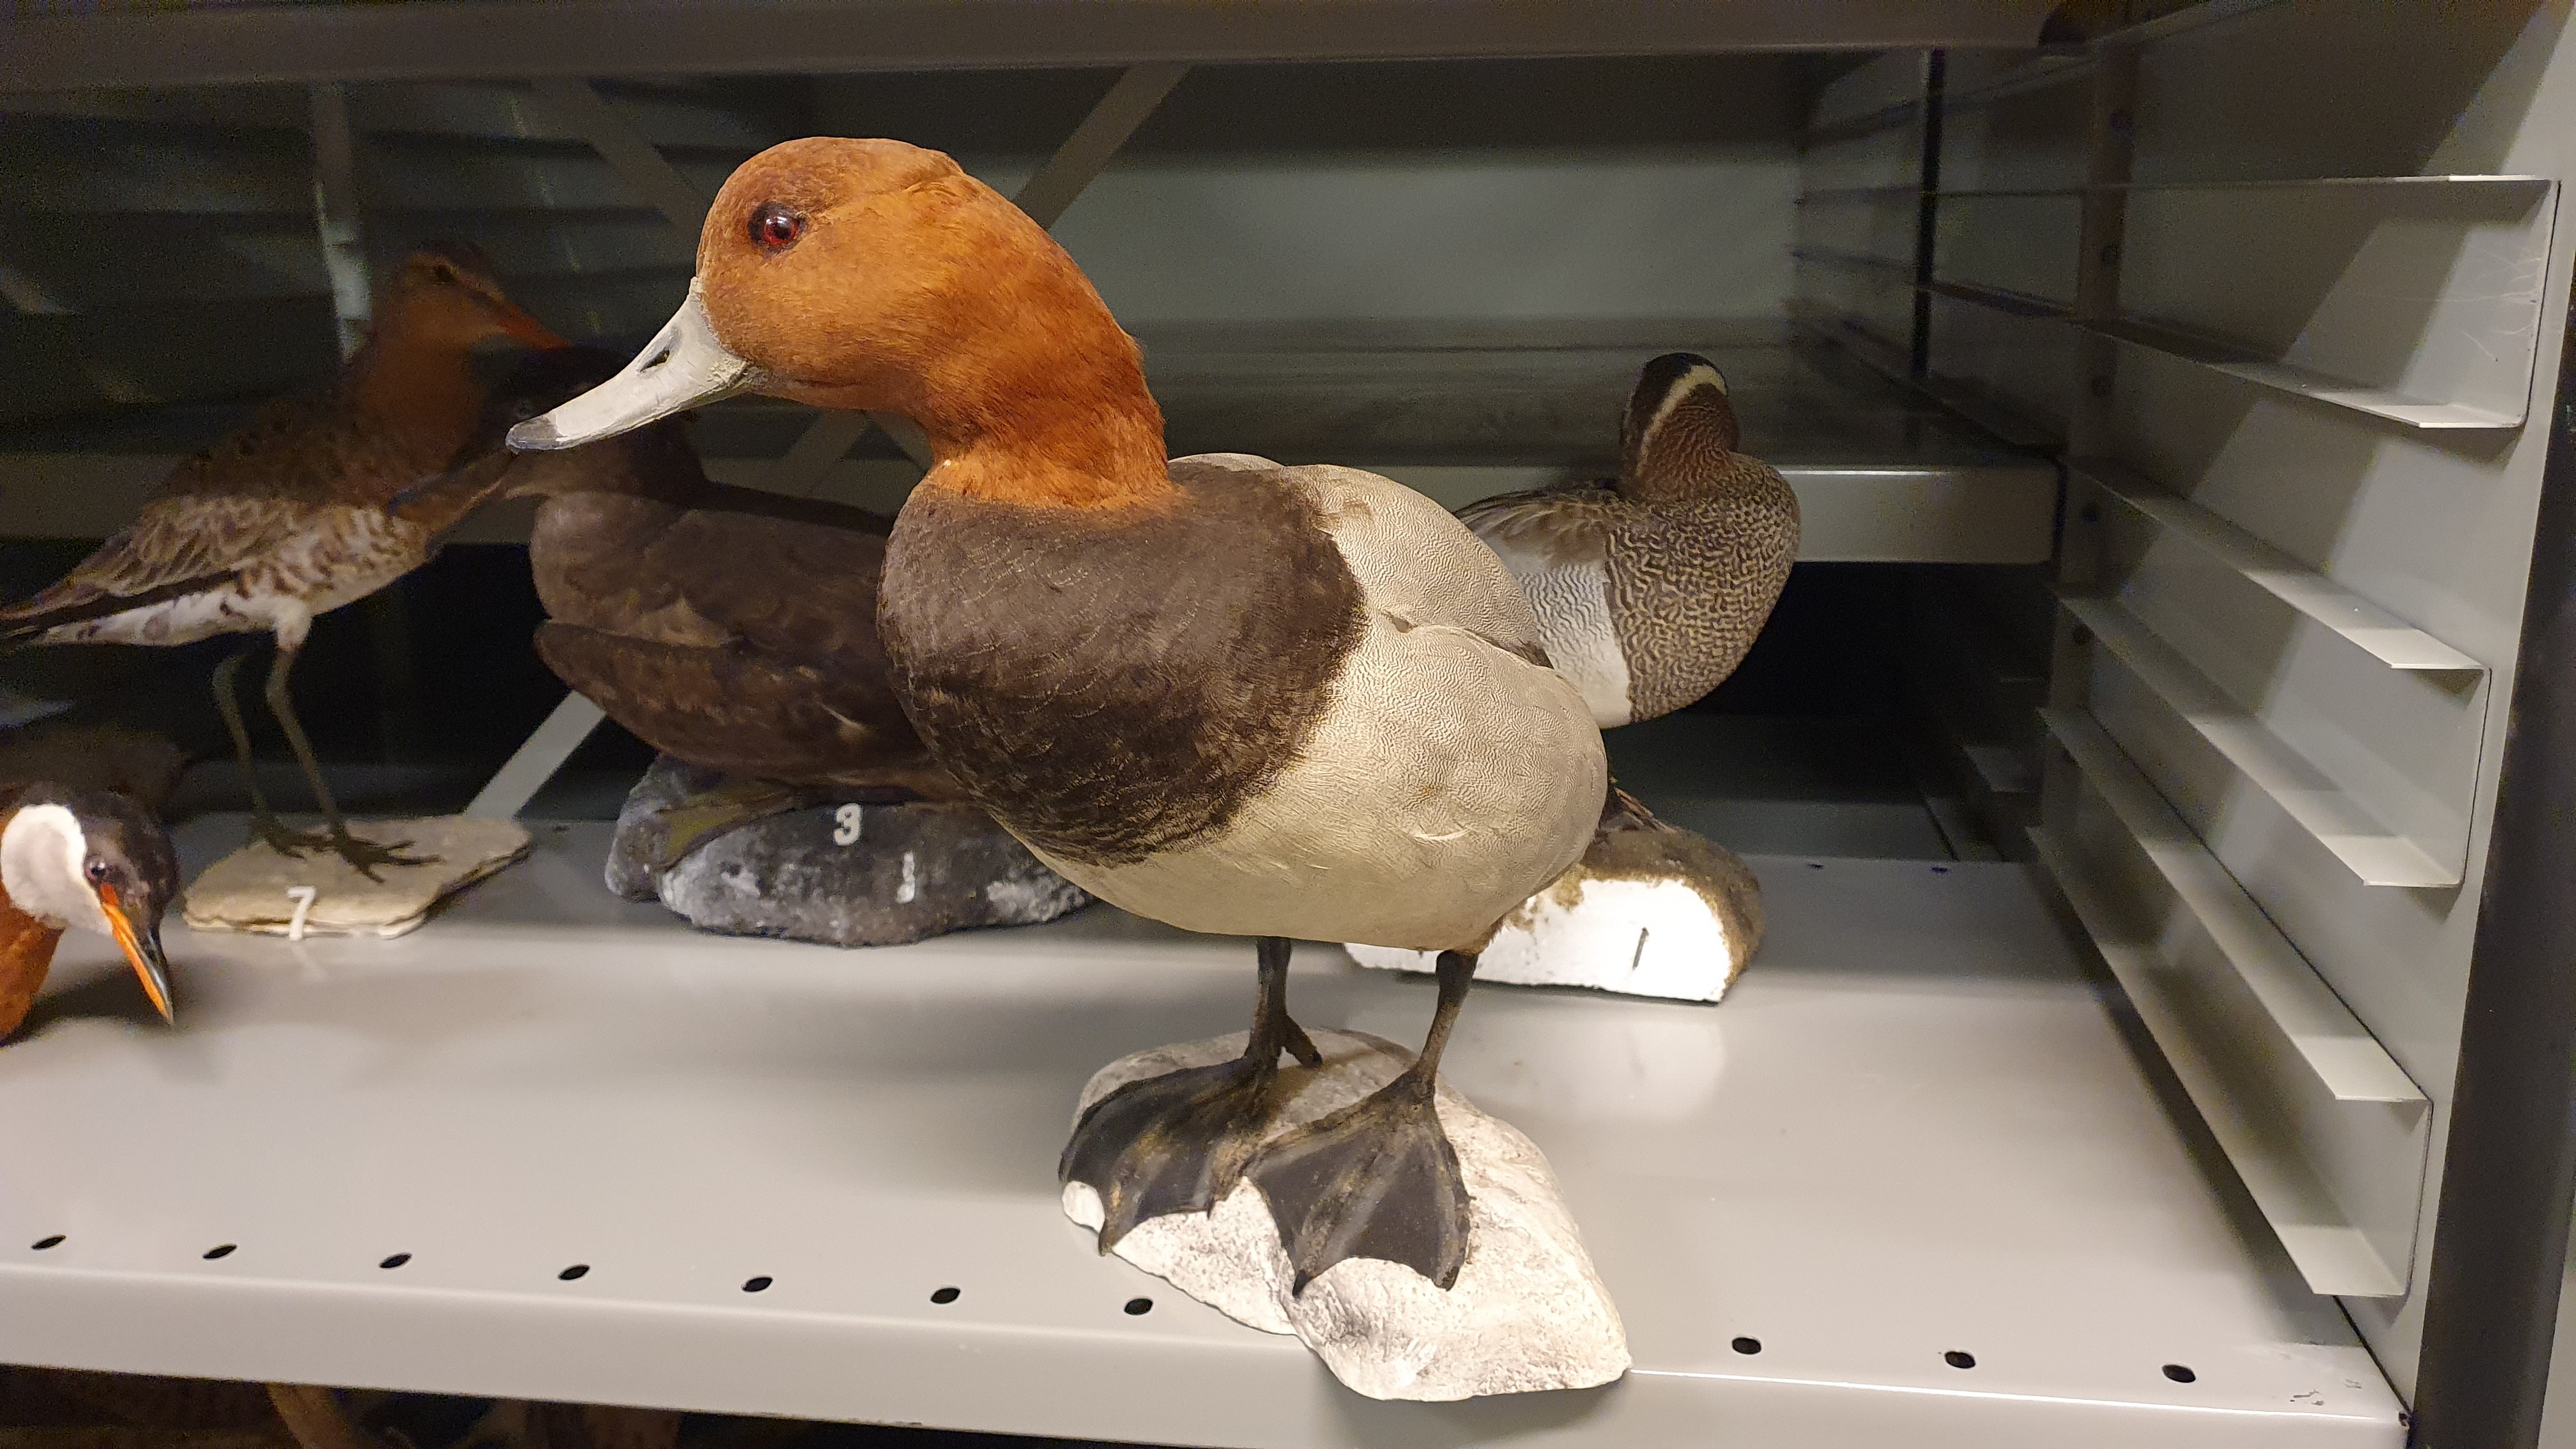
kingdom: Animalia
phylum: Chordata
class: Aves
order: Anseriformes
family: Anatidae
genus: Aythya
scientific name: Aythya ferina
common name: Common pochard
